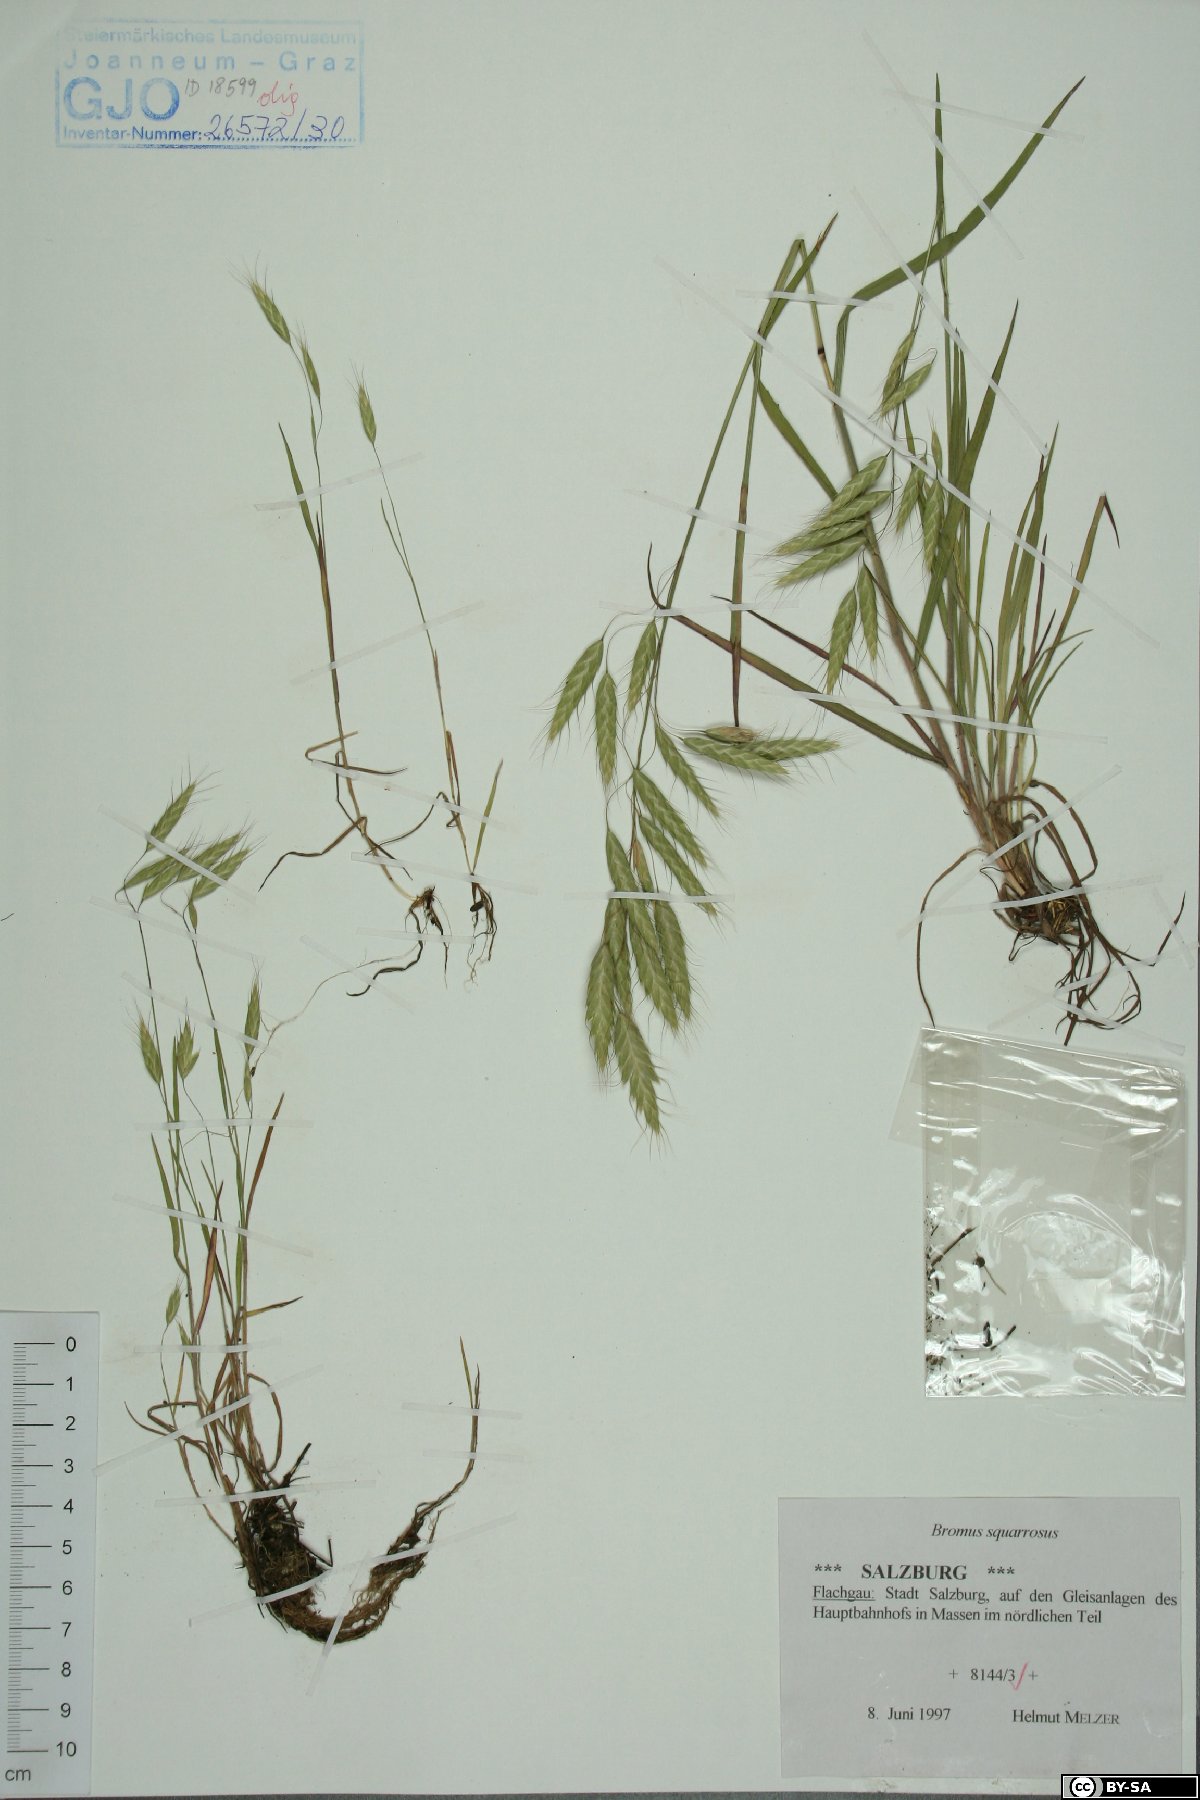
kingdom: Plantae
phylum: Tracheophyta
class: Liliopsida
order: Poales
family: Poaceae
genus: Bromus
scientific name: Bromus squarrosus
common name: Corn brome
